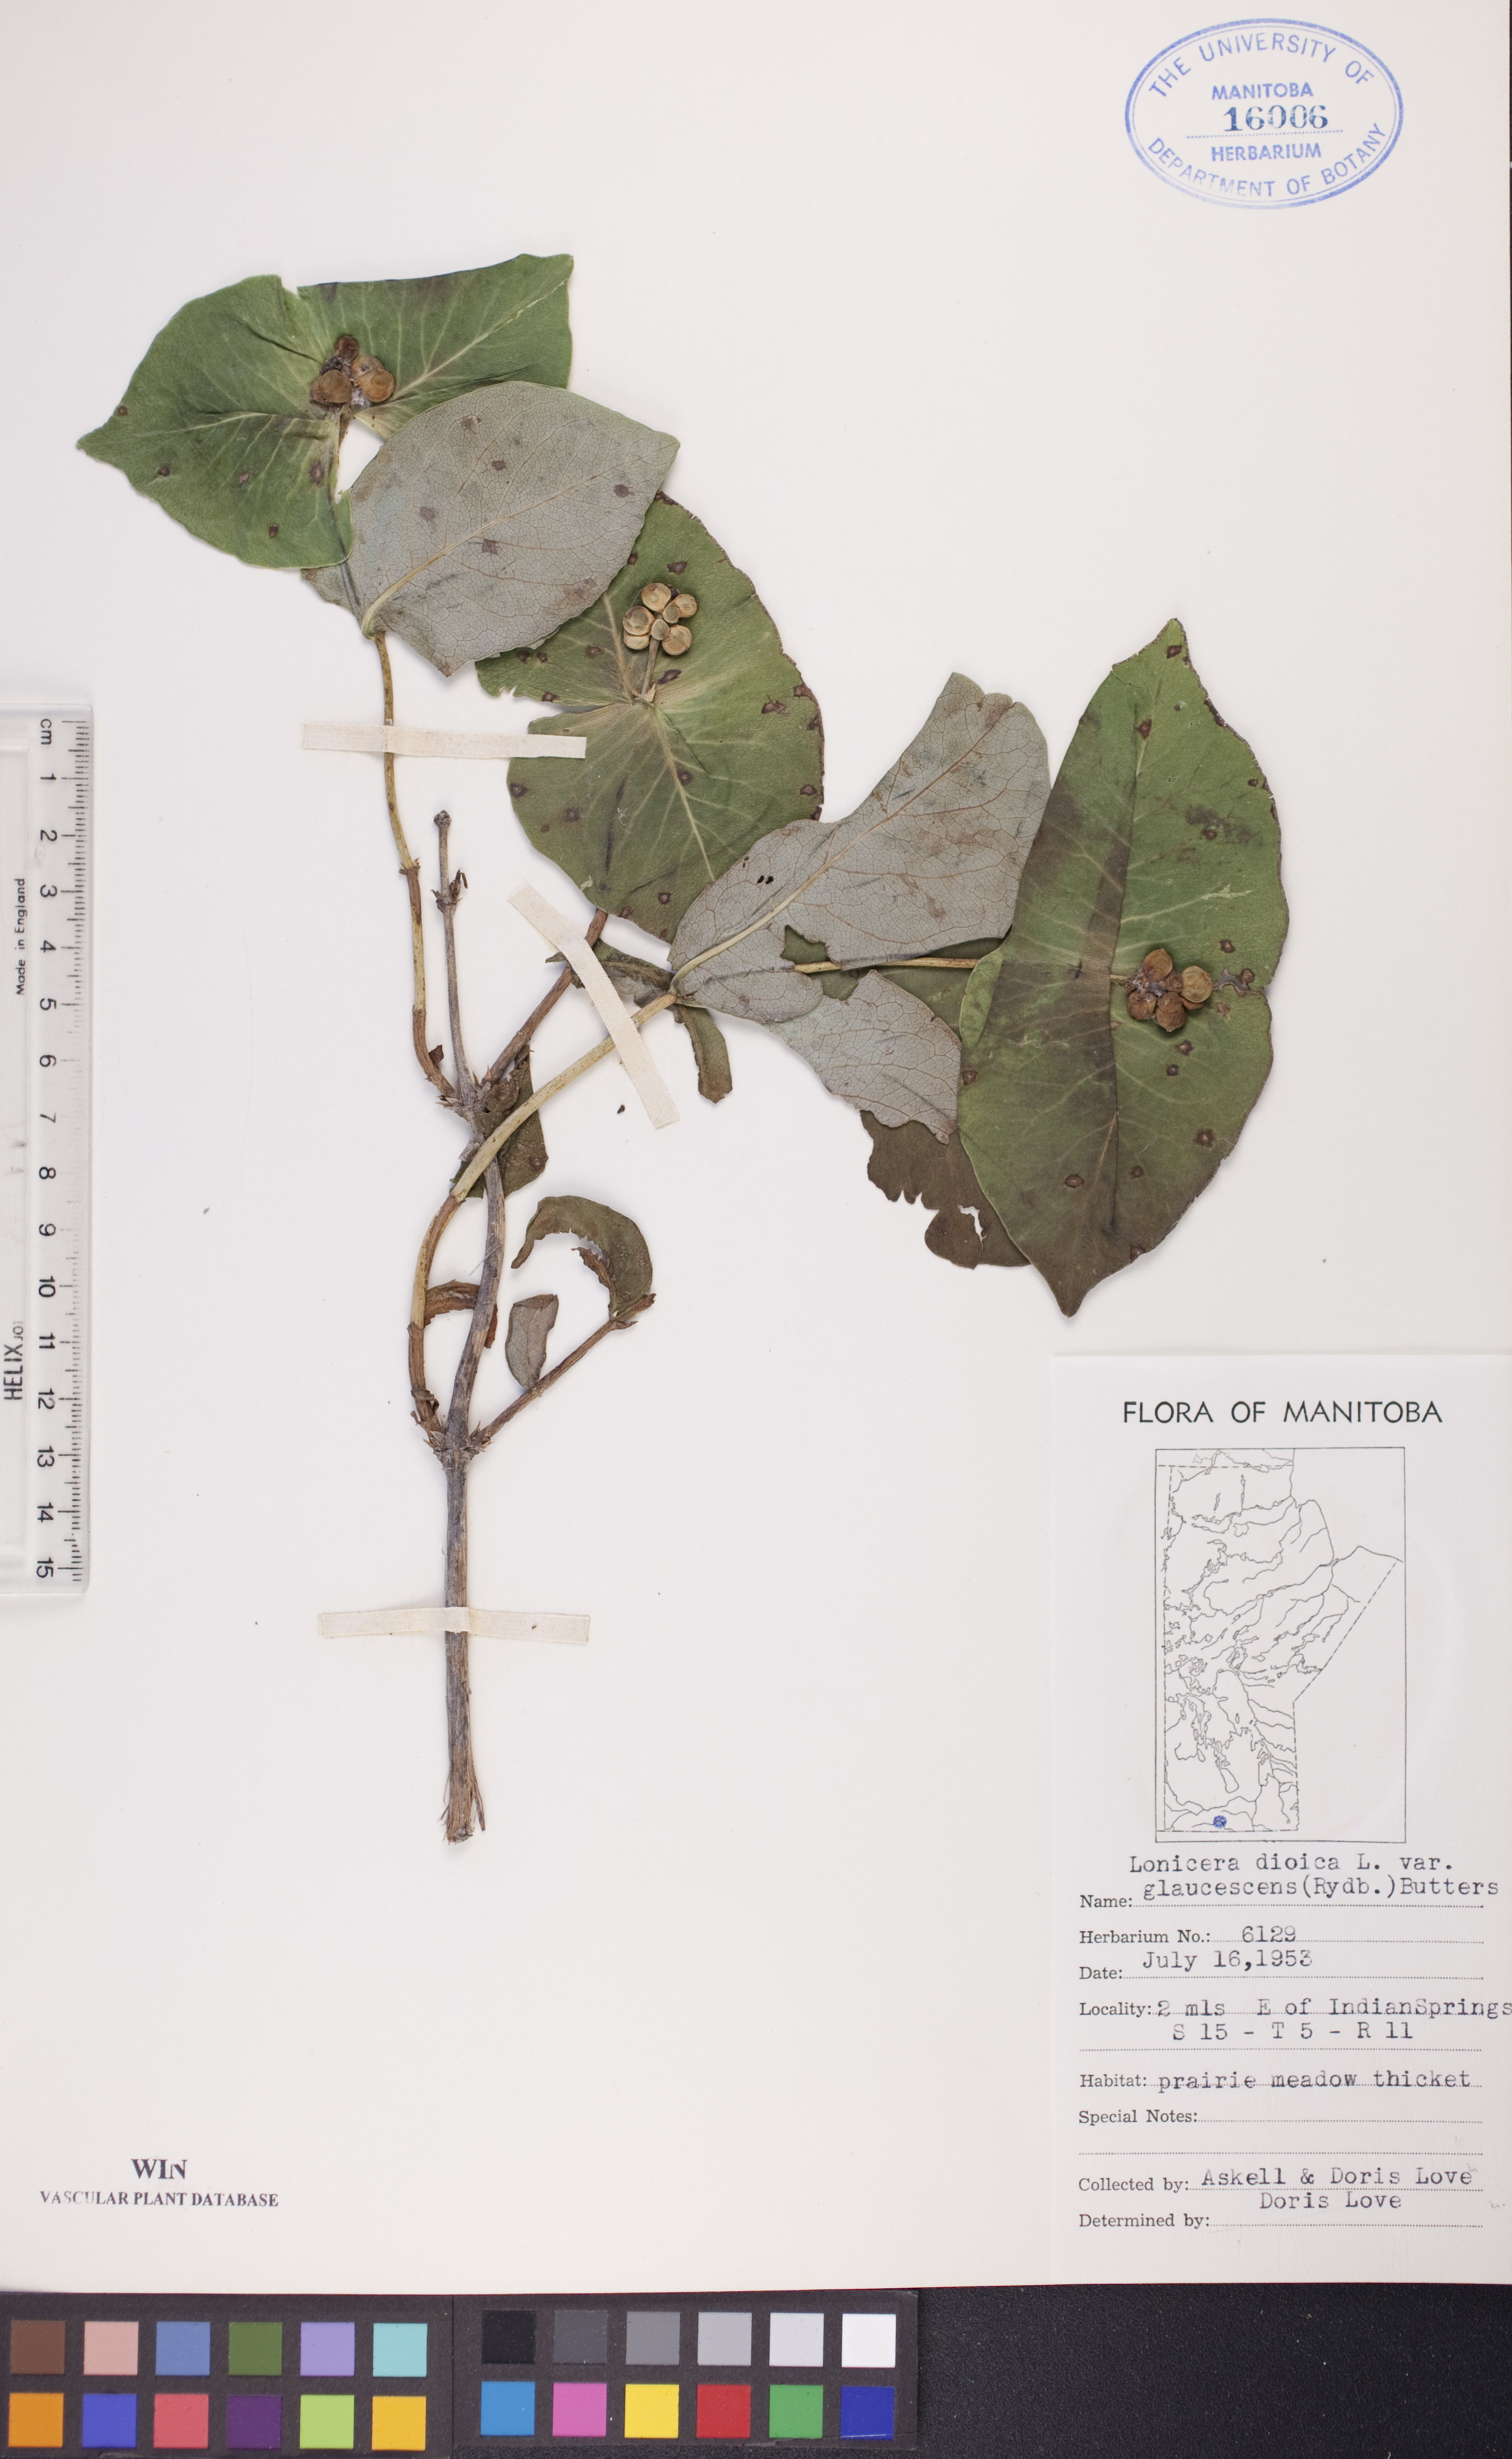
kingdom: Plantae
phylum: Tracheophyta
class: Magnoliopsida
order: Dipsacales
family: Caprifoliaceae
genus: Lonicera
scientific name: Lonicera dioica
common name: Limber honeysuckle
